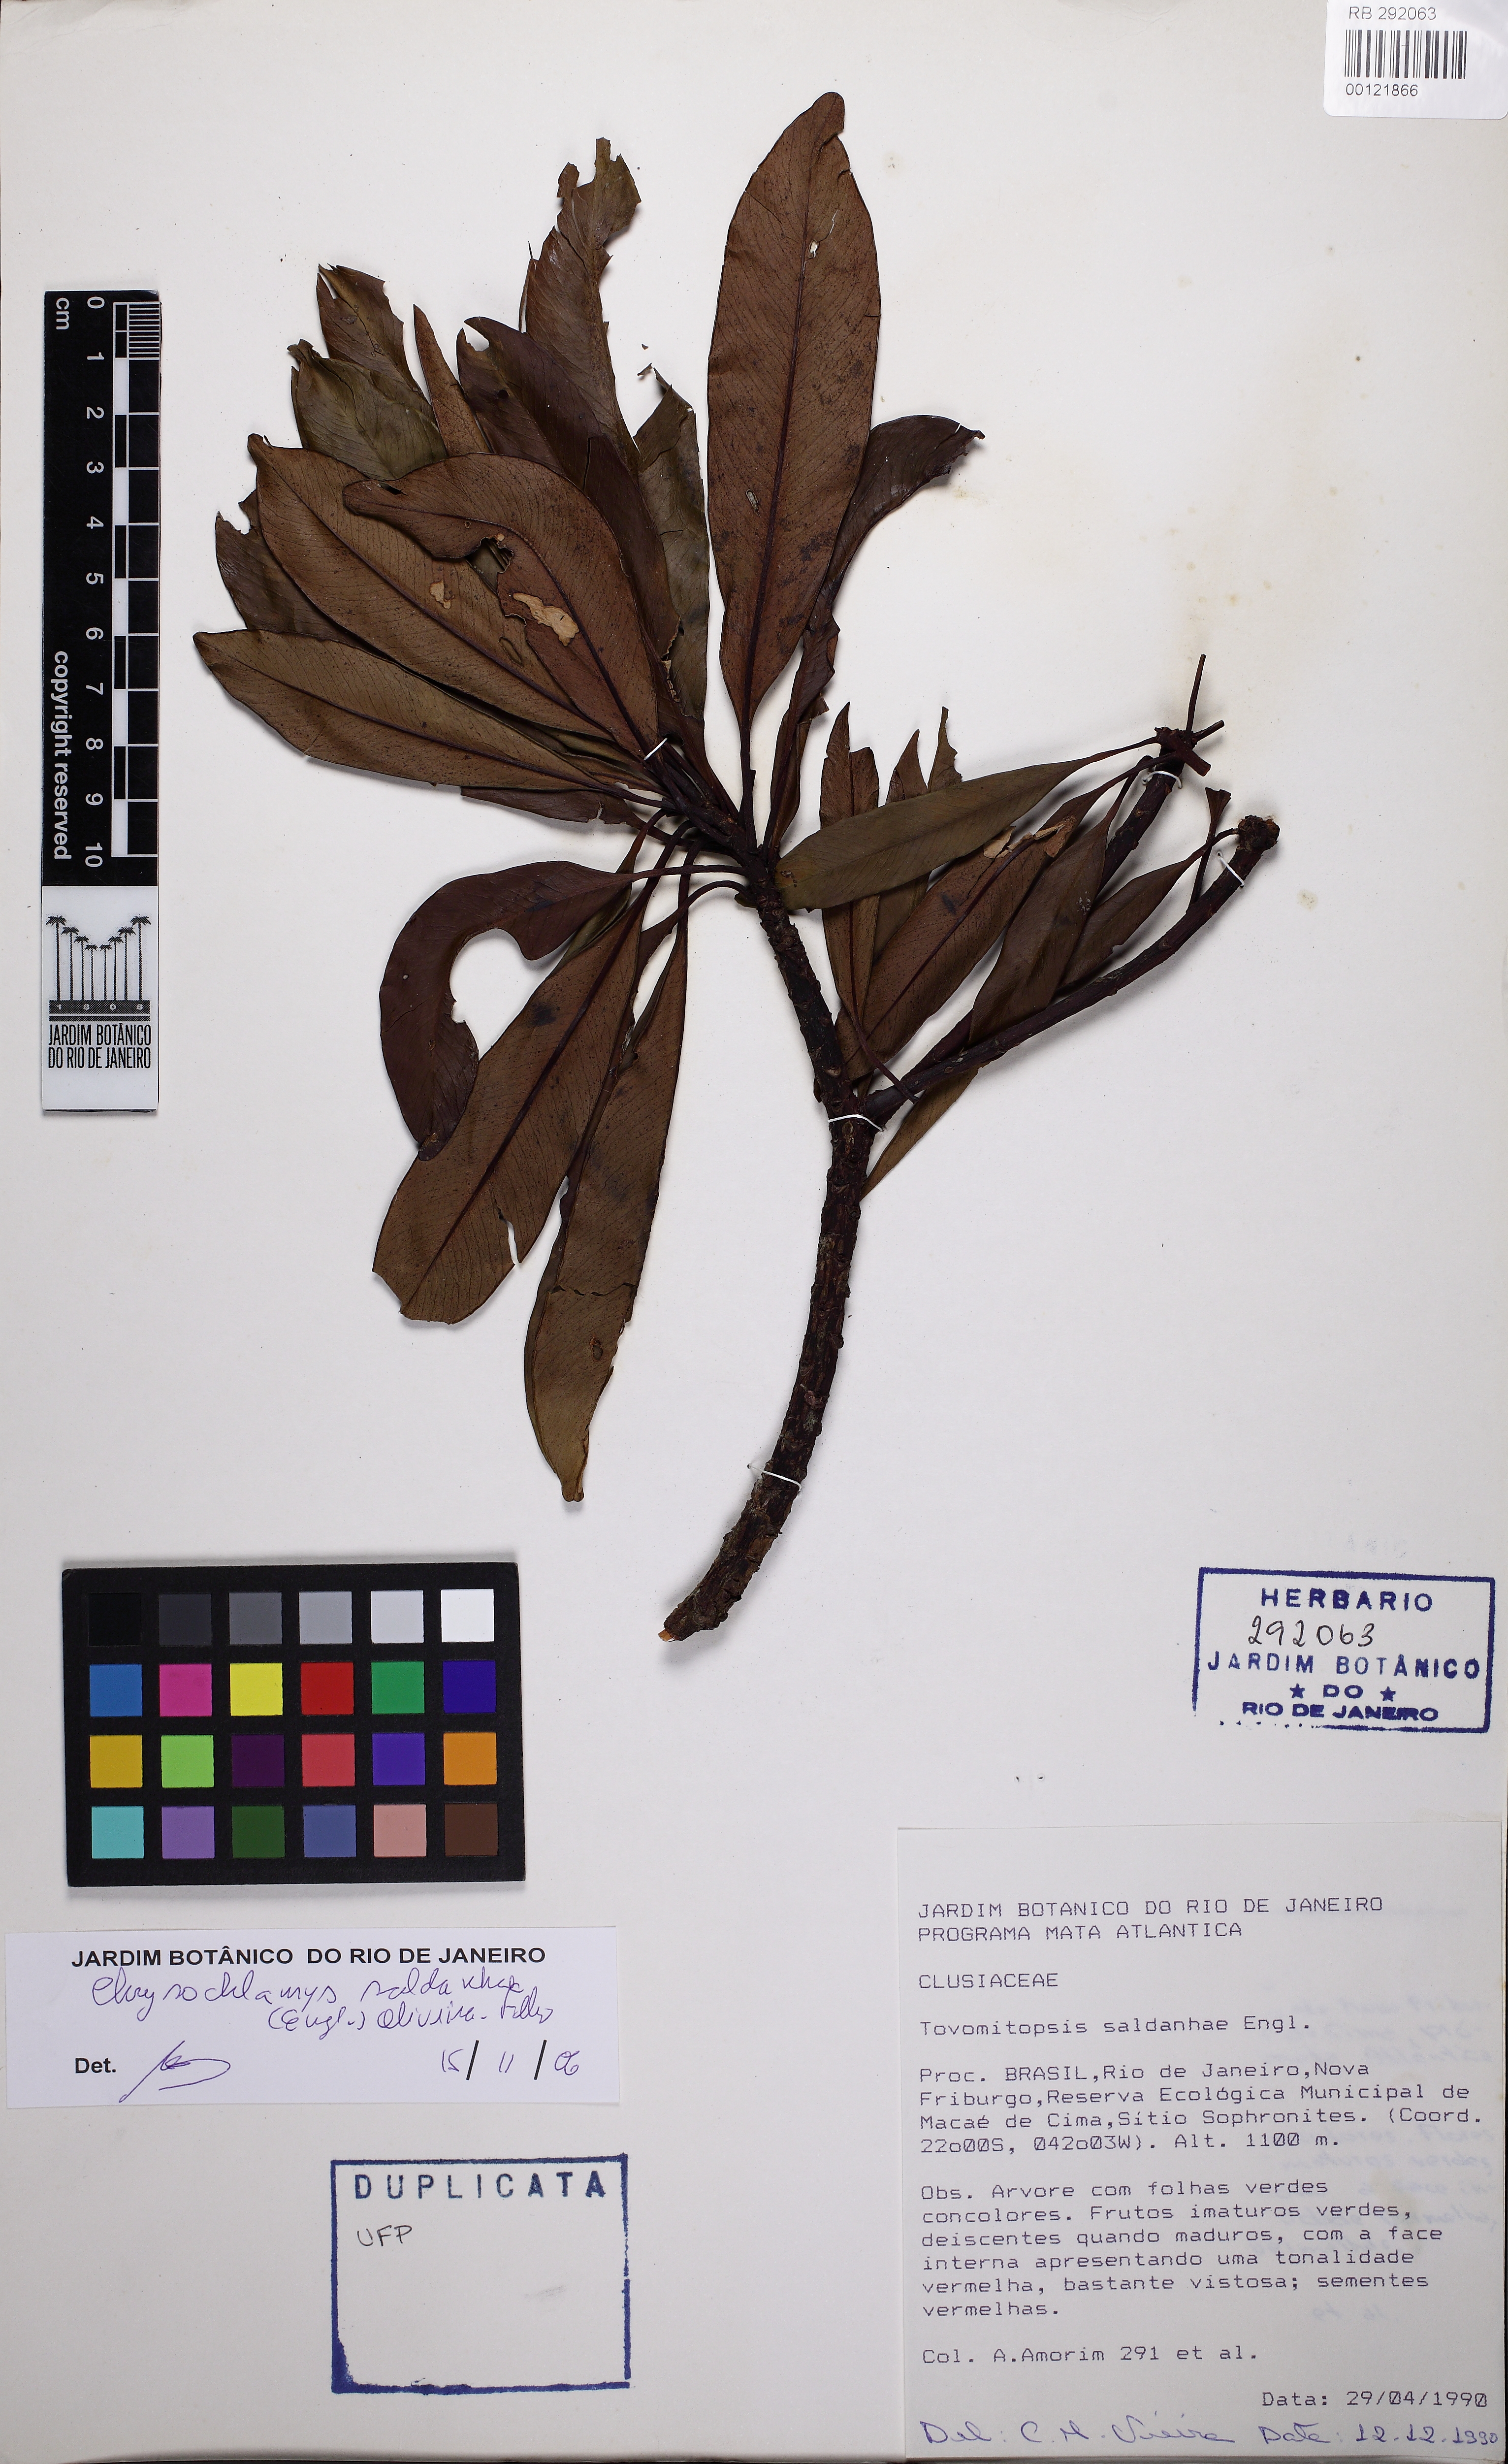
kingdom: Plantae
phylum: Tracheophyta
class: Magnoliopsida
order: Malpighiales
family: Clusiaceae
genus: Chrysochlamys
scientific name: Chrysochlamys saldanhae
